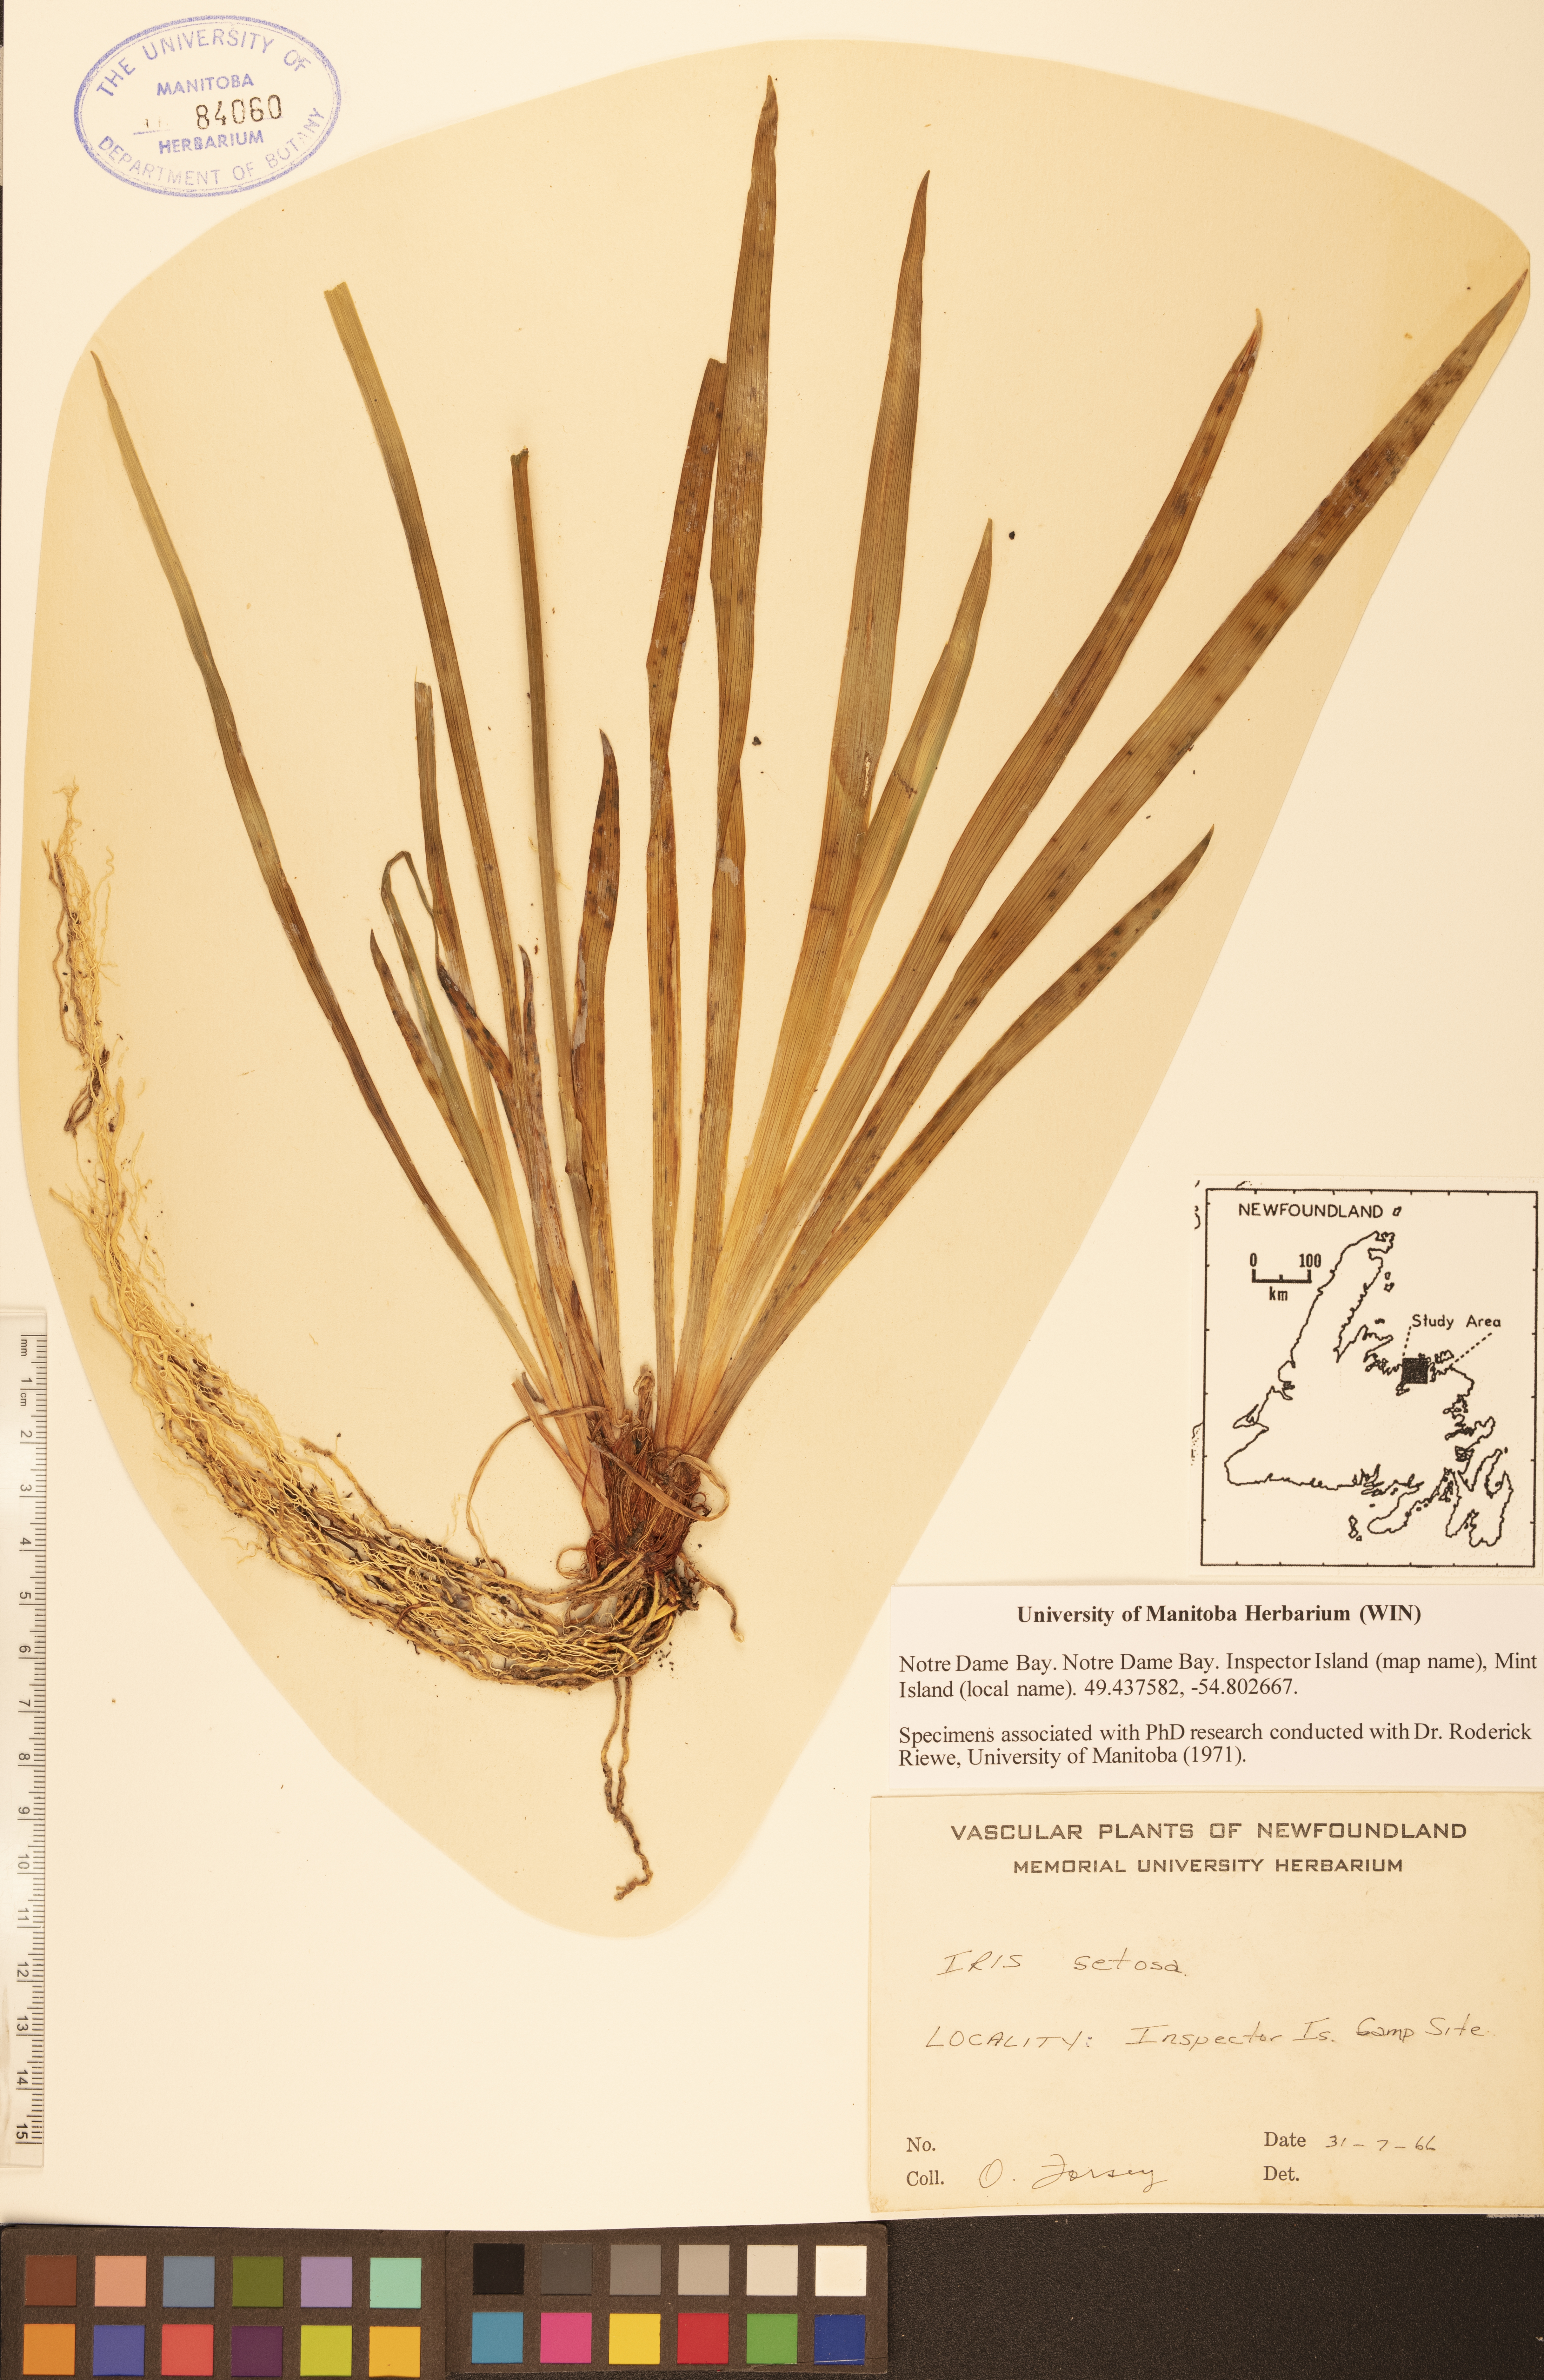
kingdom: Plantae
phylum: Tracheophyta
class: Liliopsida
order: Asparagales
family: Iridaceae
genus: Iris
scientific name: Iris setosa
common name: Arctic blue flag
